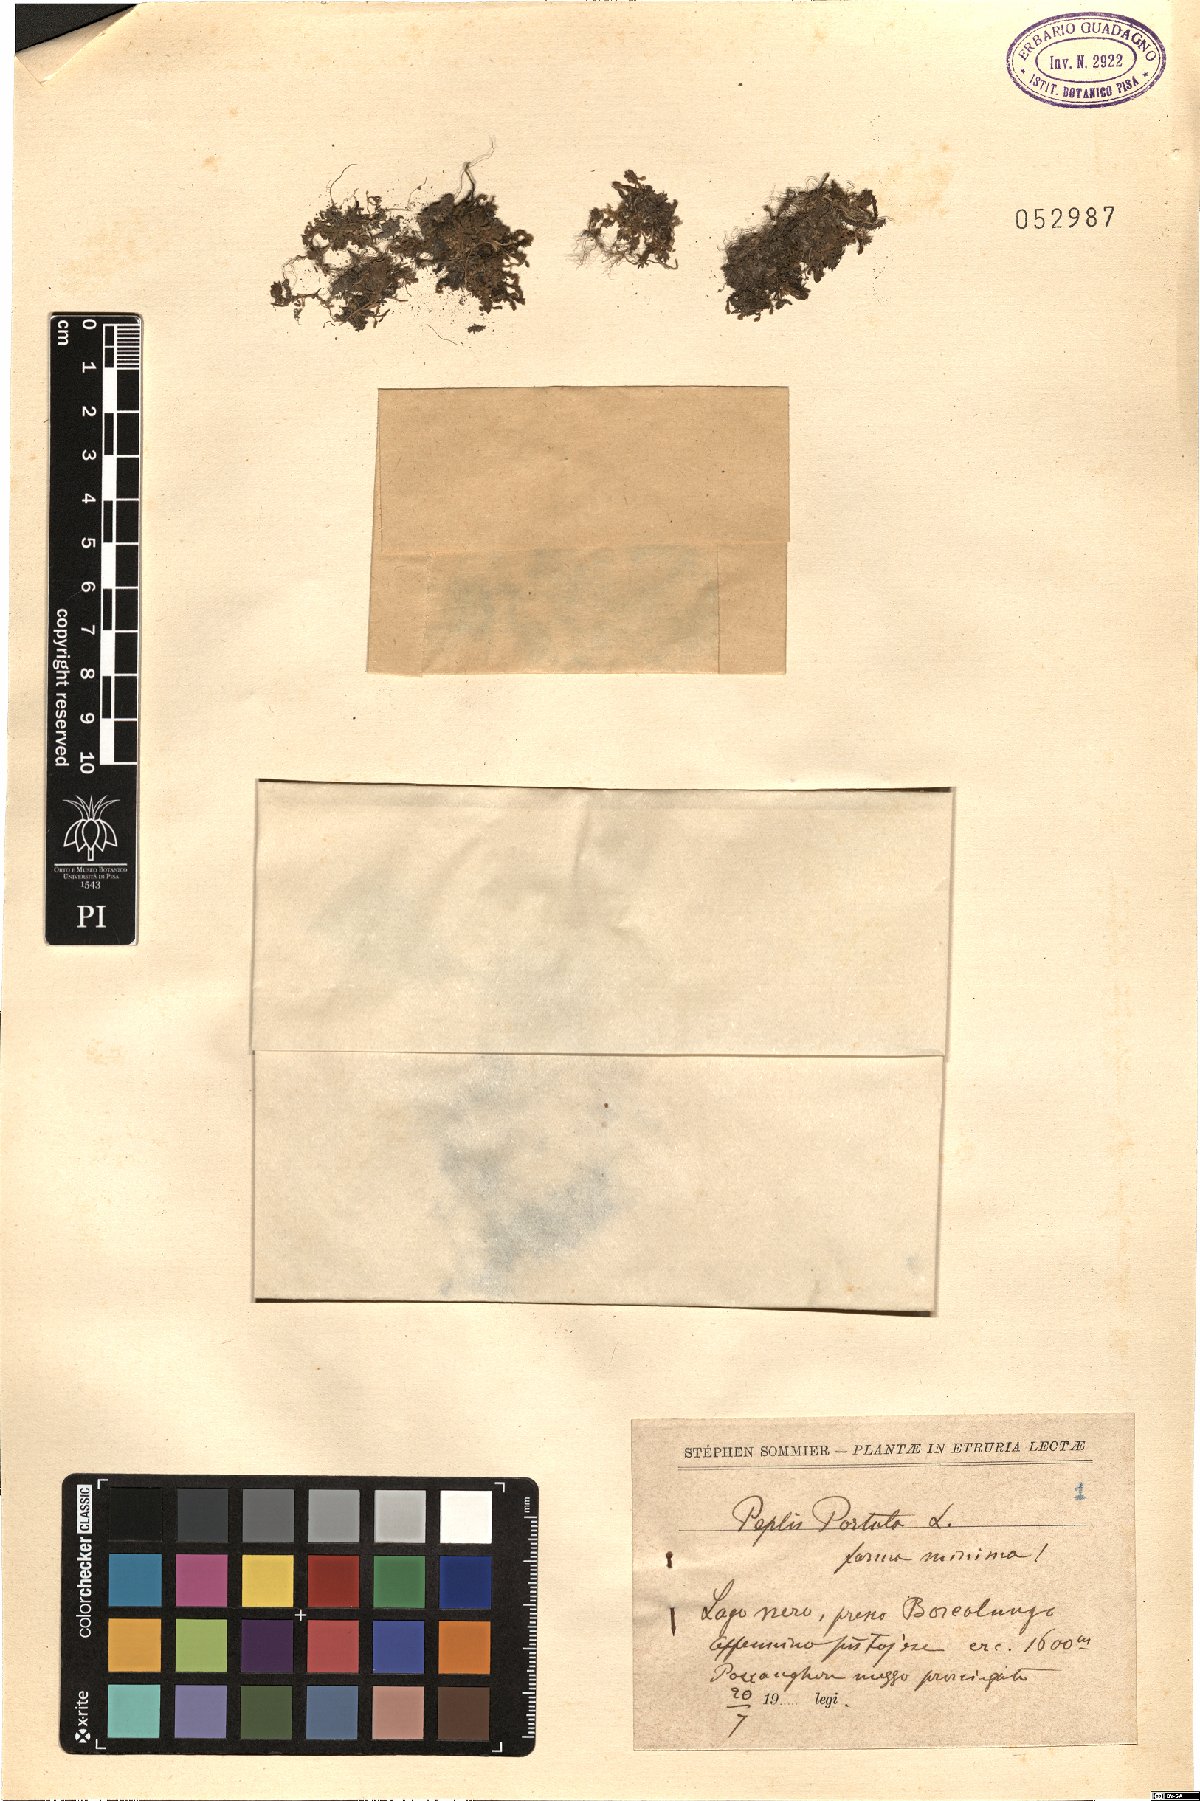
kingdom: Plantae
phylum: Tracheophyta
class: Magnoliopsida
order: Myrtales
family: Lythraceae
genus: Lythrum
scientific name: Lythrum portula
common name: Water purslane
